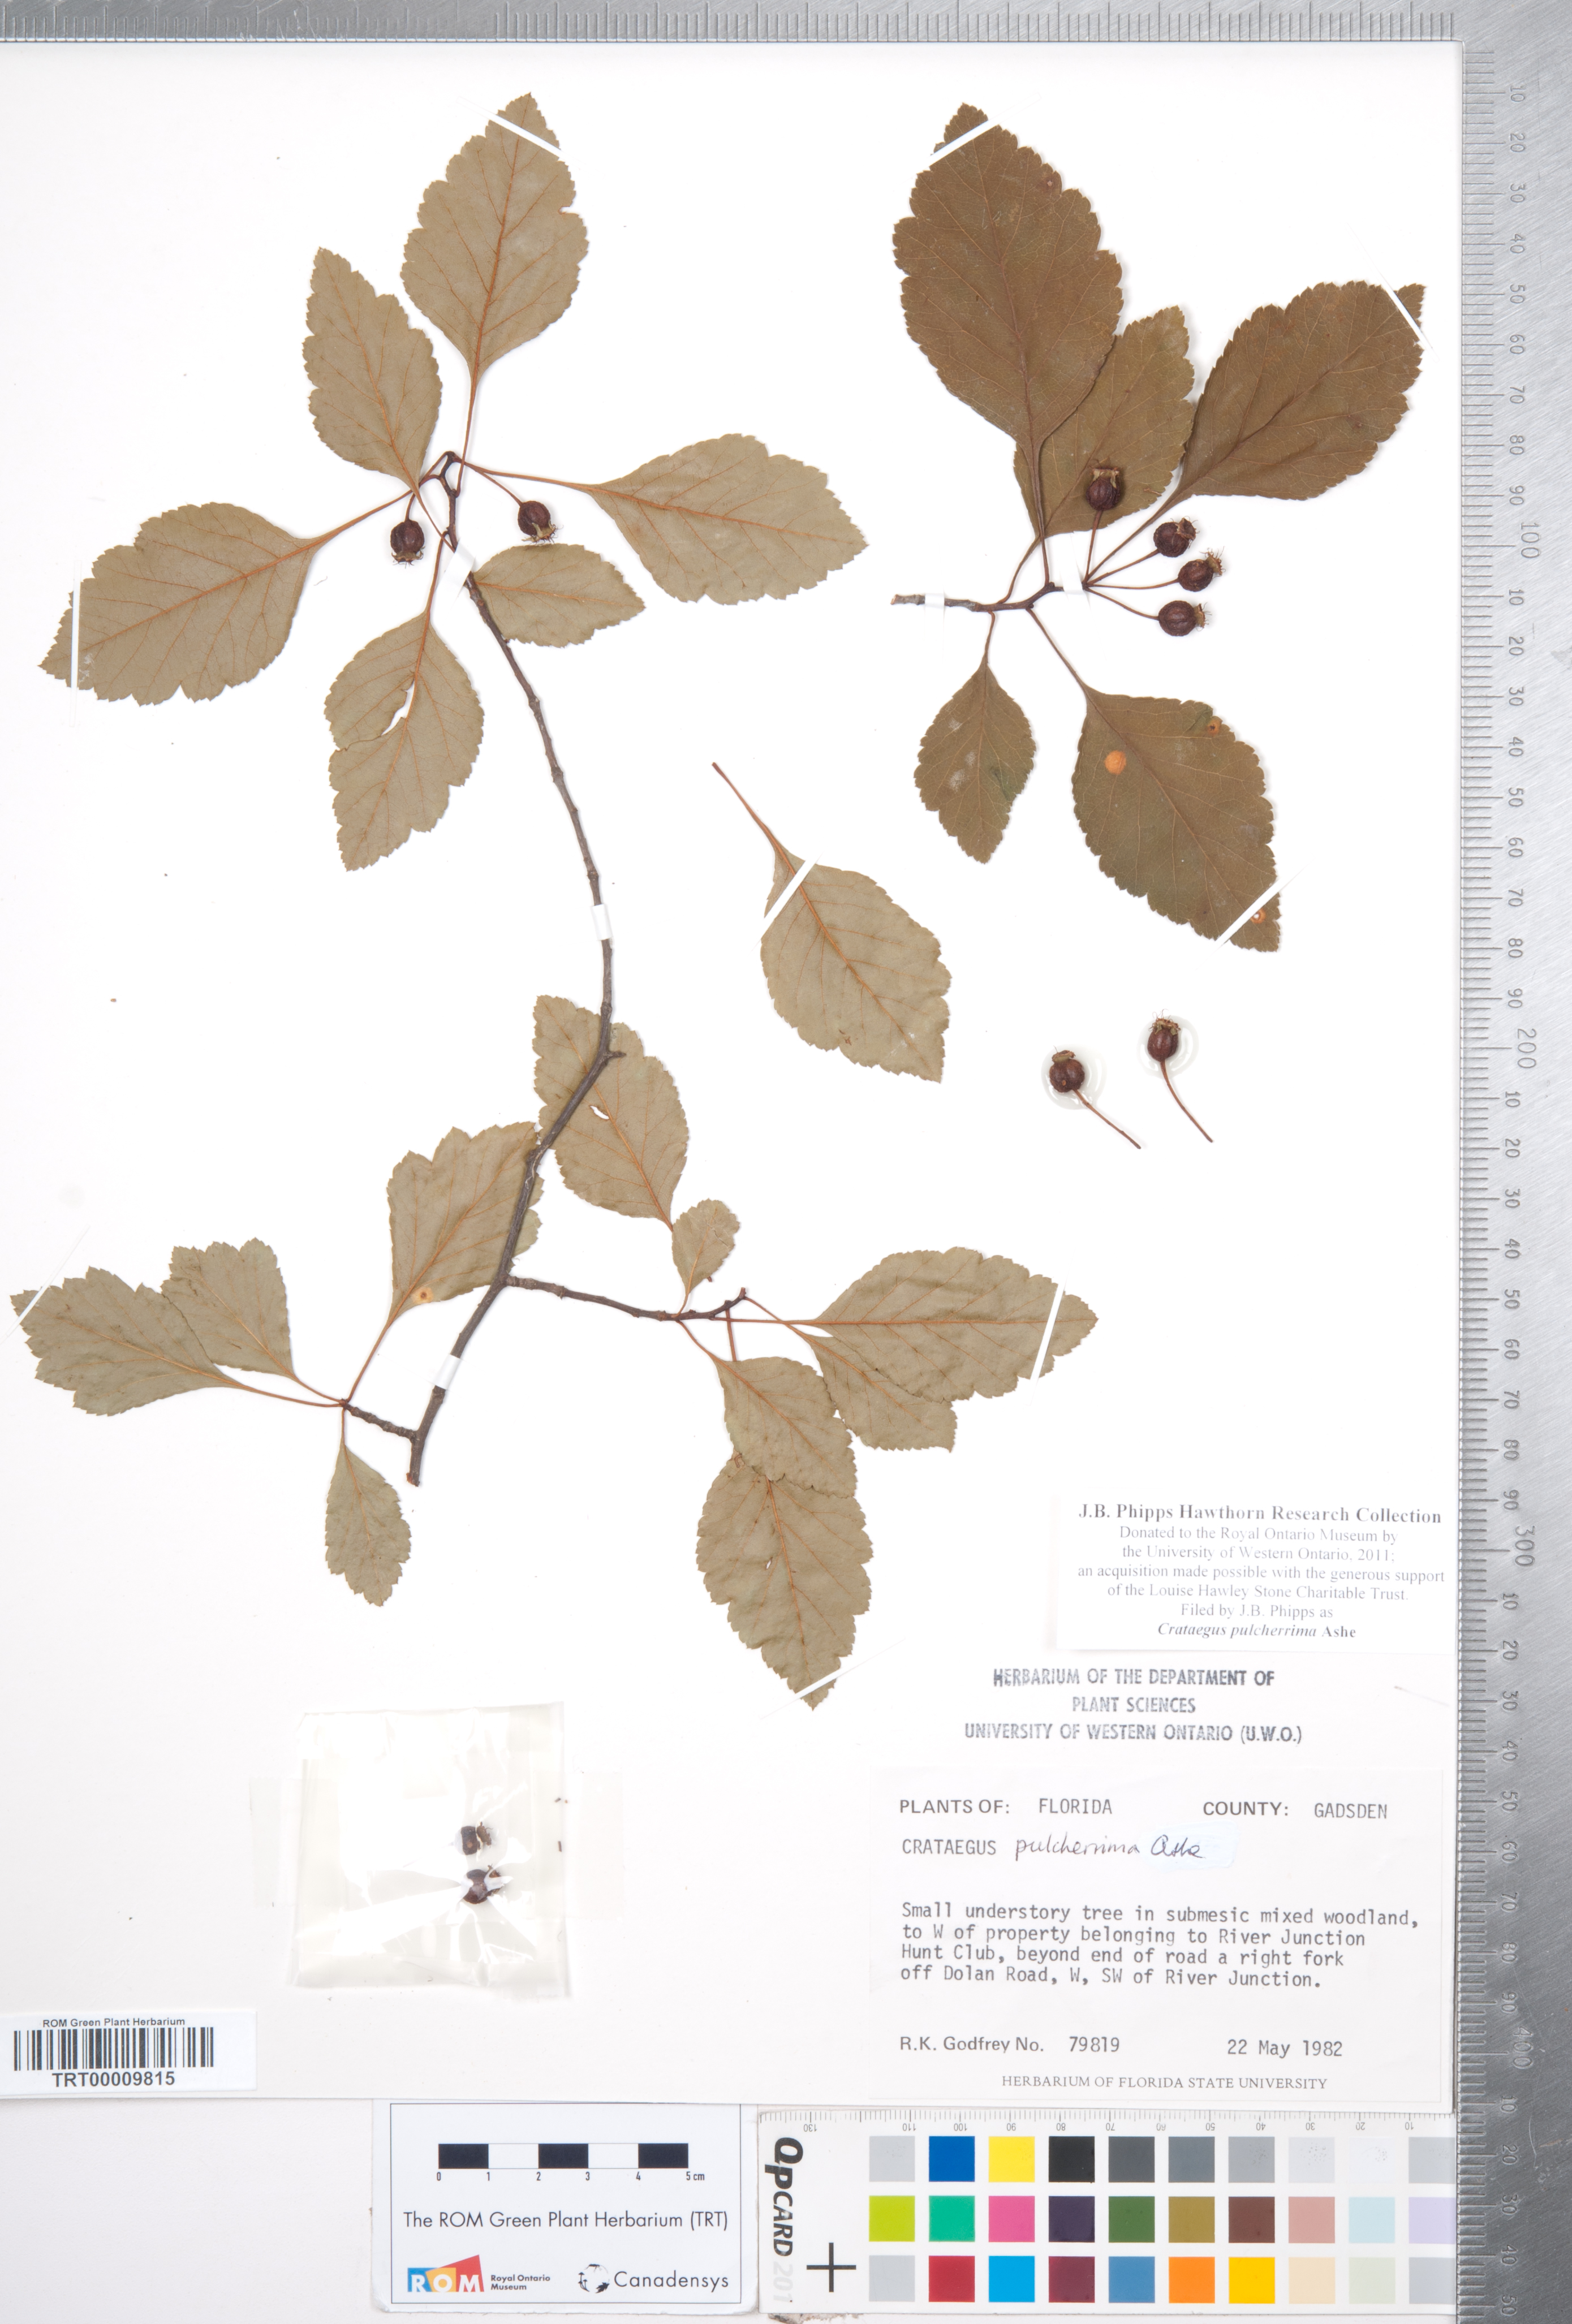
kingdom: Plantae
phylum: Tracheophyta
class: Magnoliopsida
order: Rosales
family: Rosaceae
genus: Crataegus
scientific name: Crataegus pulcherrima
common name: Beautiful hawthorn
